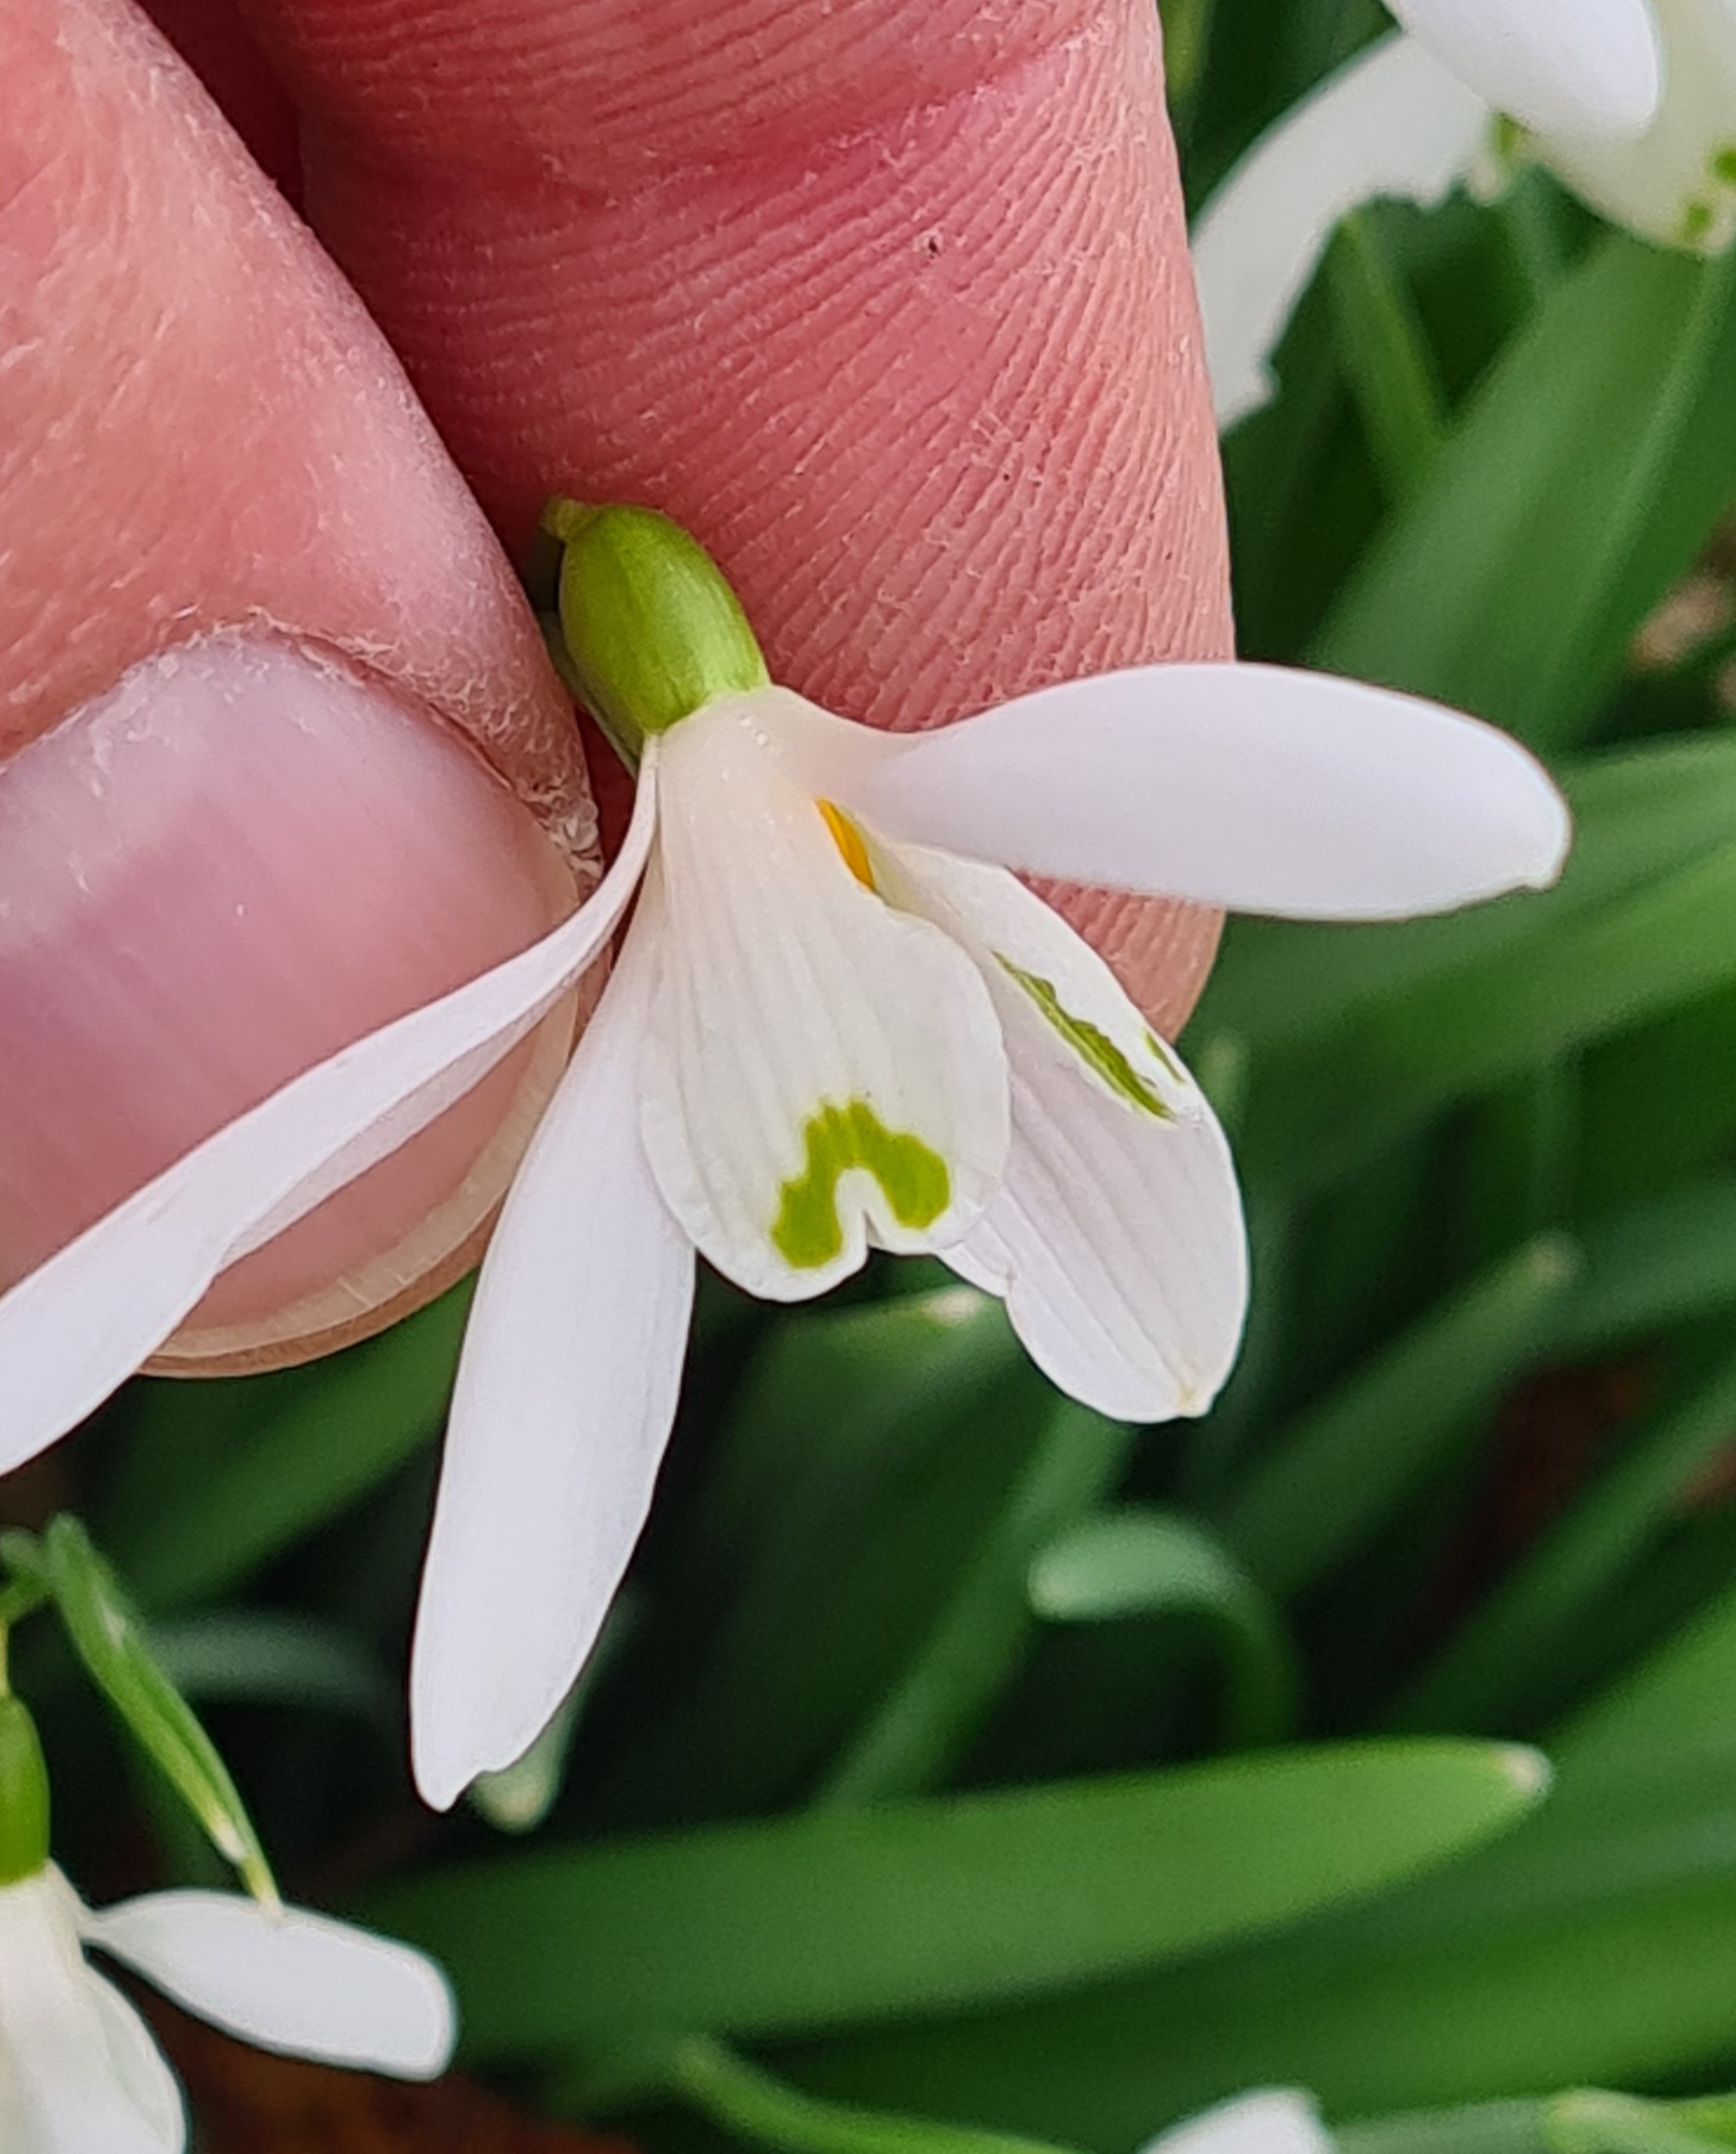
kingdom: Plantae
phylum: Tracheophyta
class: Liliopsida
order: Asparagales
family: Amaryllidaceae
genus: Galanthus
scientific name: Galanthus nivalis
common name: Vintergæk
